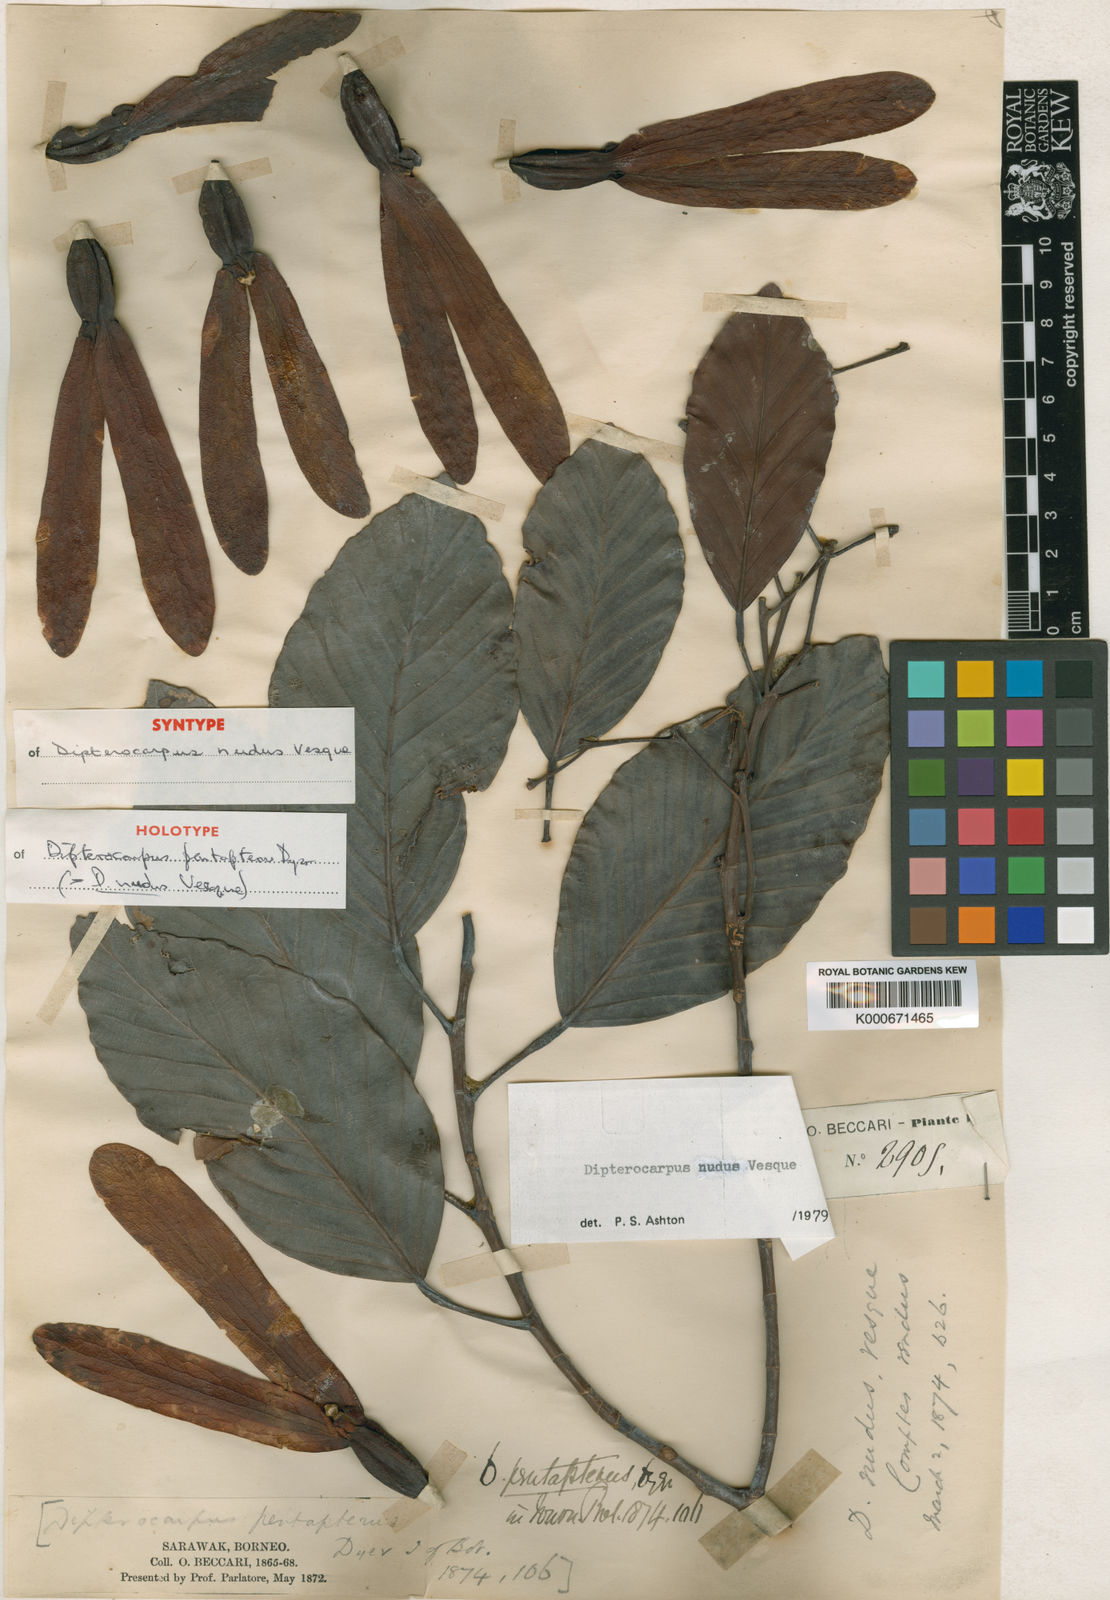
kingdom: Plantae
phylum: Tracheophyta
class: Magnoliopsida
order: Malvales
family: Dipterocarpaceae
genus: Dipterocarpus
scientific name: Dipterocarpus nudus
